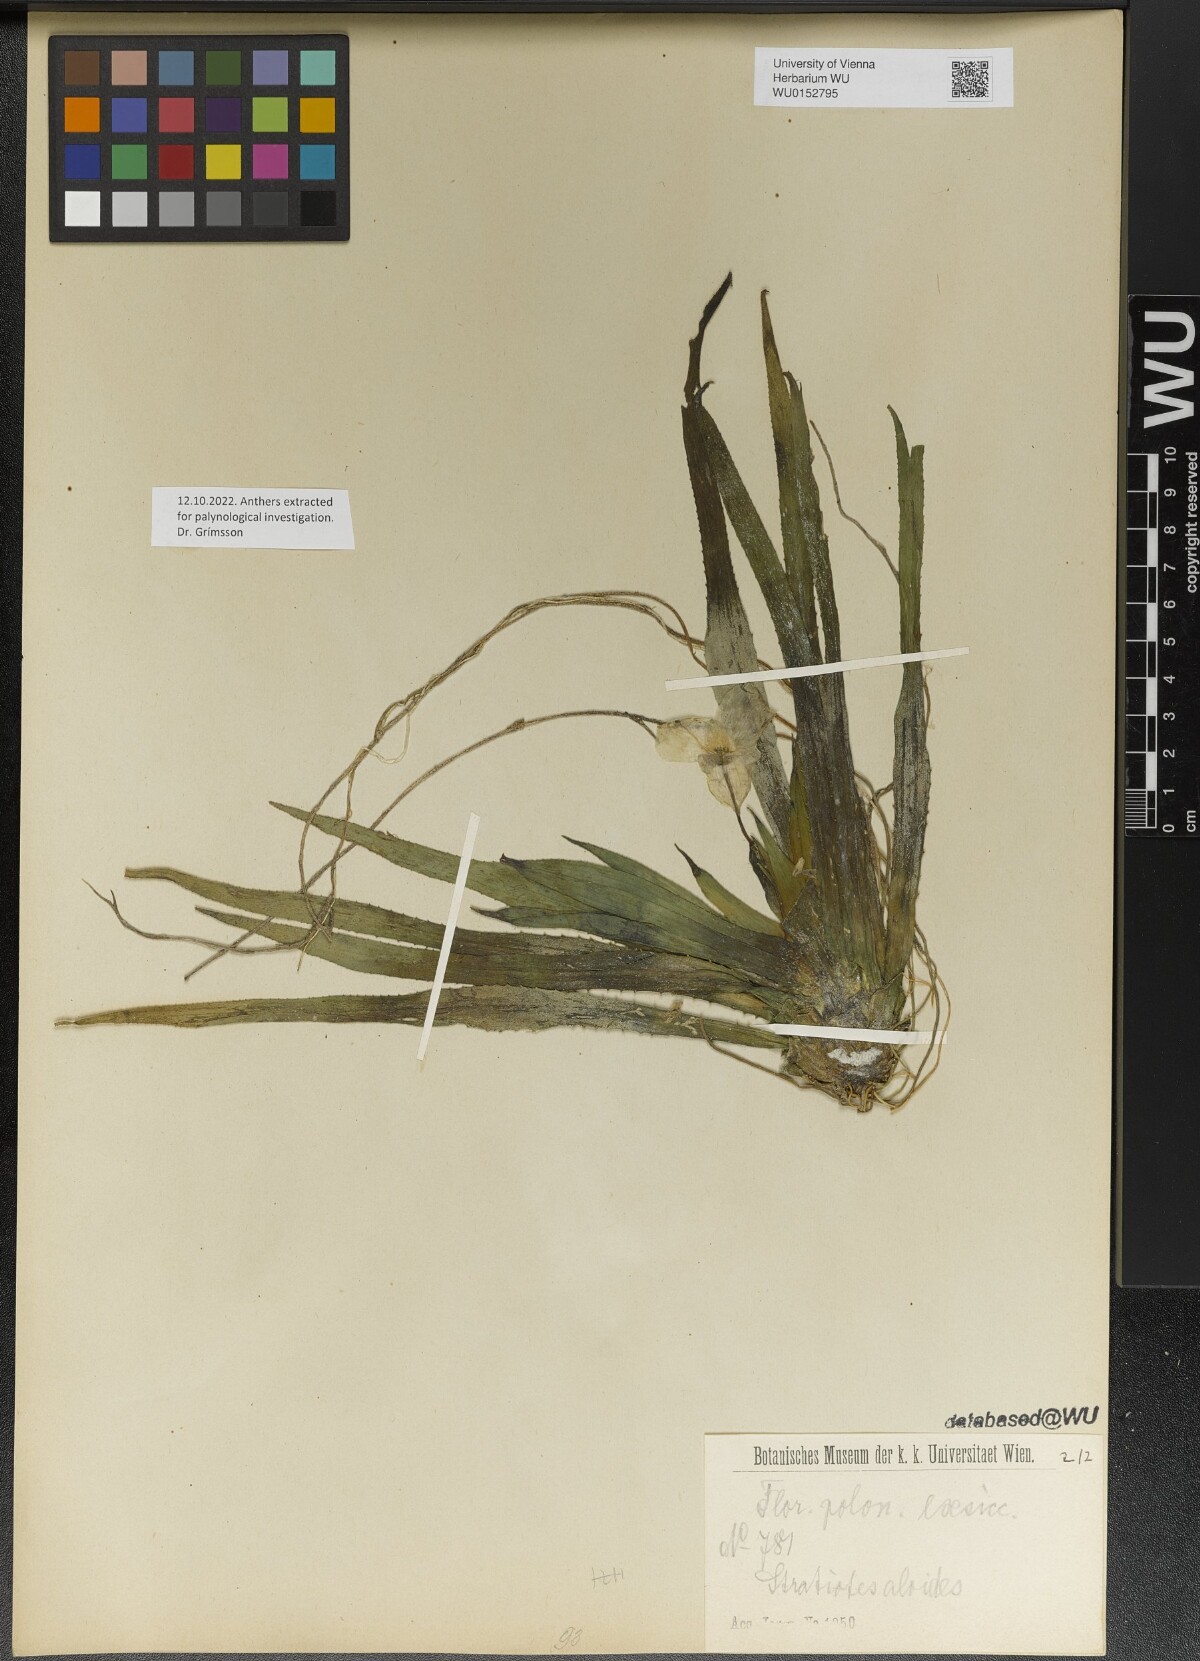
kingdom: Plantae
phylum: Tracheophyta
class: Liliopsida
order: Alismatales
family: Hydrocharitaceae
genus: Stratiotes
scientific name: Stratiotes aloides
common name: Water-soldier
